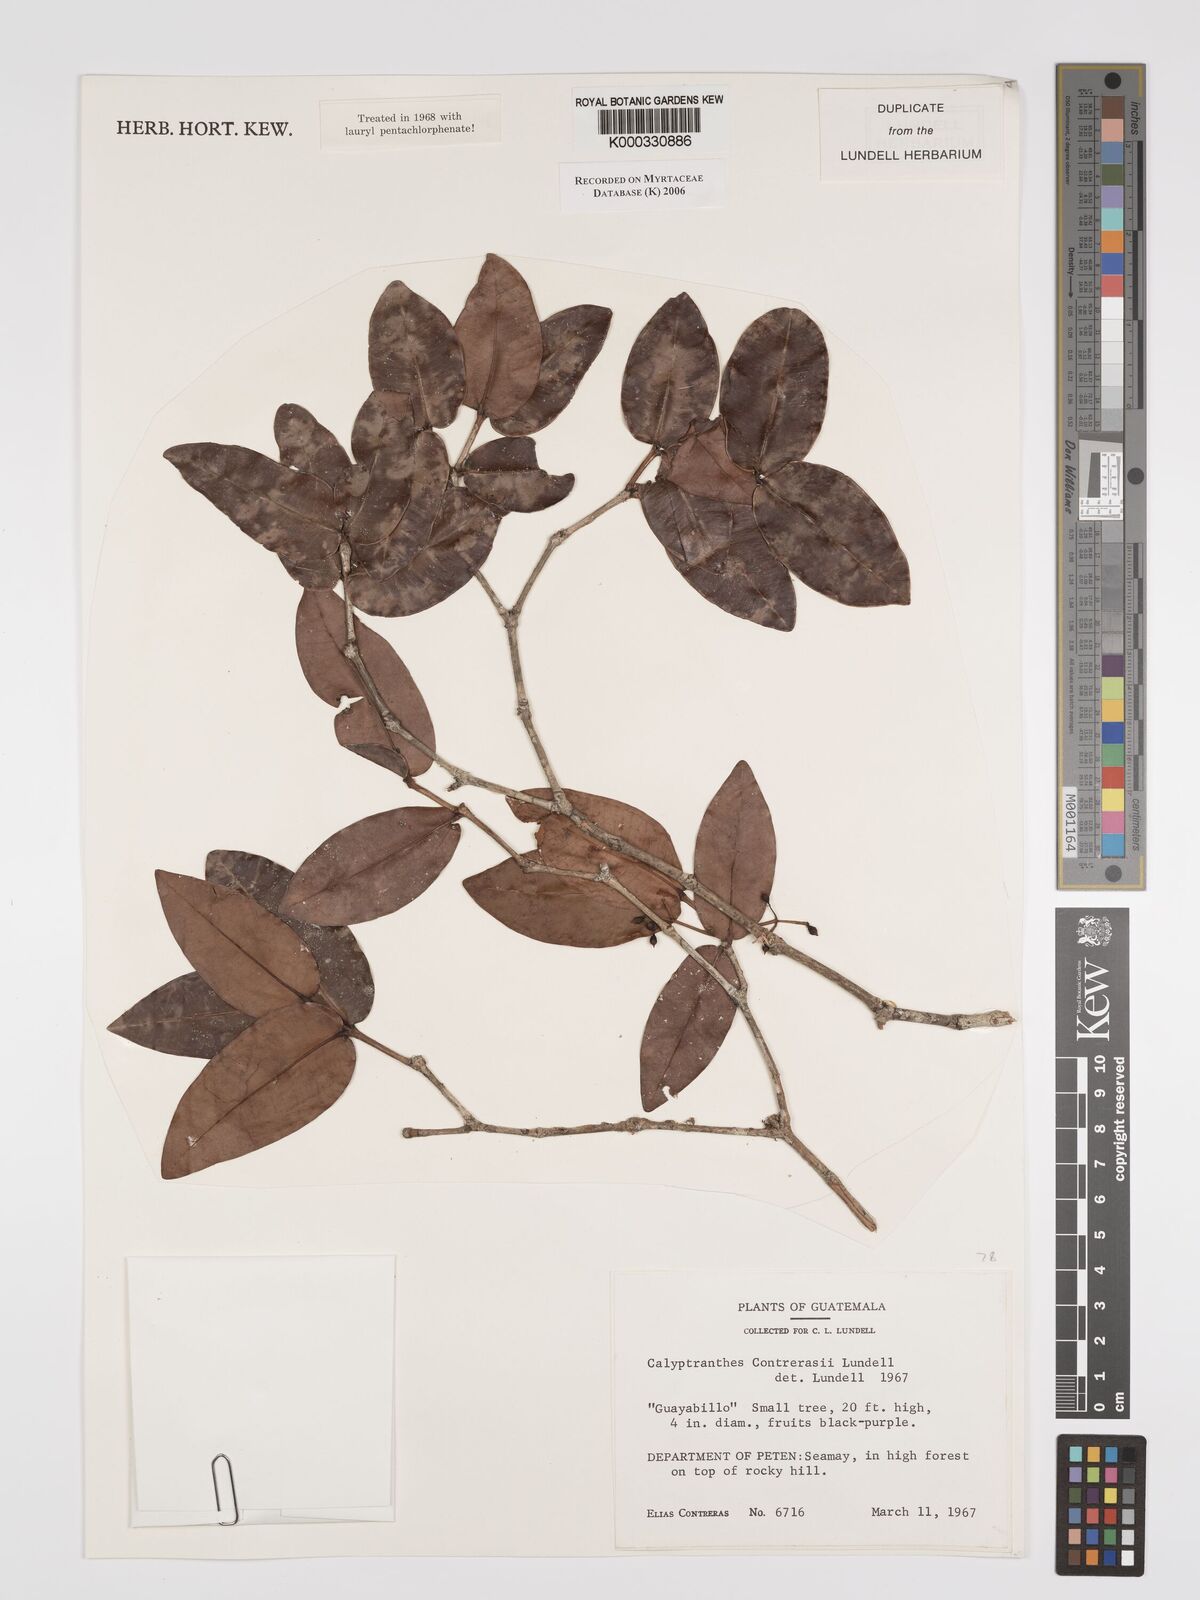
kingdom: Plantae
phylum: Tracheophyta
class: Magnoliopsida
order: Myrtales
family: Myrtaceae
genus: Myrcia
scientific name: Myrcia contrerasii
